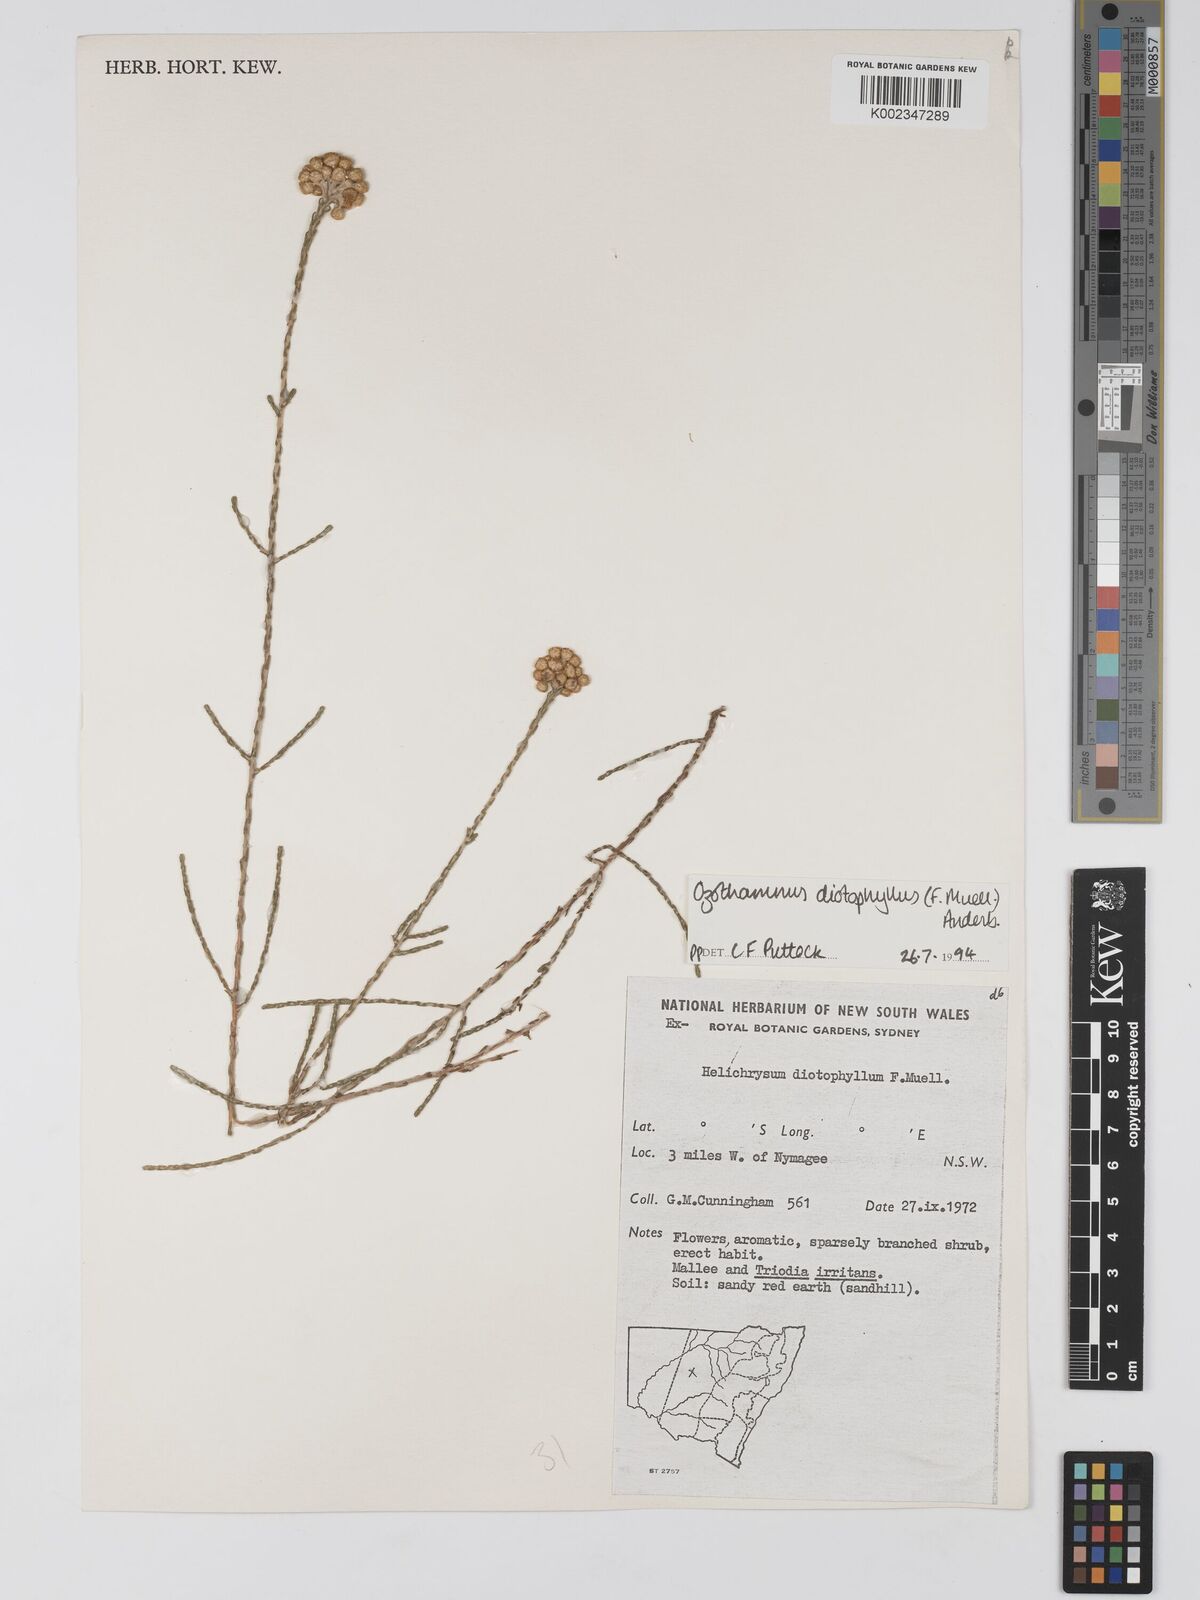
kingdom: Plantae
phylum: Tracheophyta
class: Magnoliopsida
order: Asterales
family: Asteraceae
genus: Ozothamnus
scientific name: Ozothamnus diotophyllus
